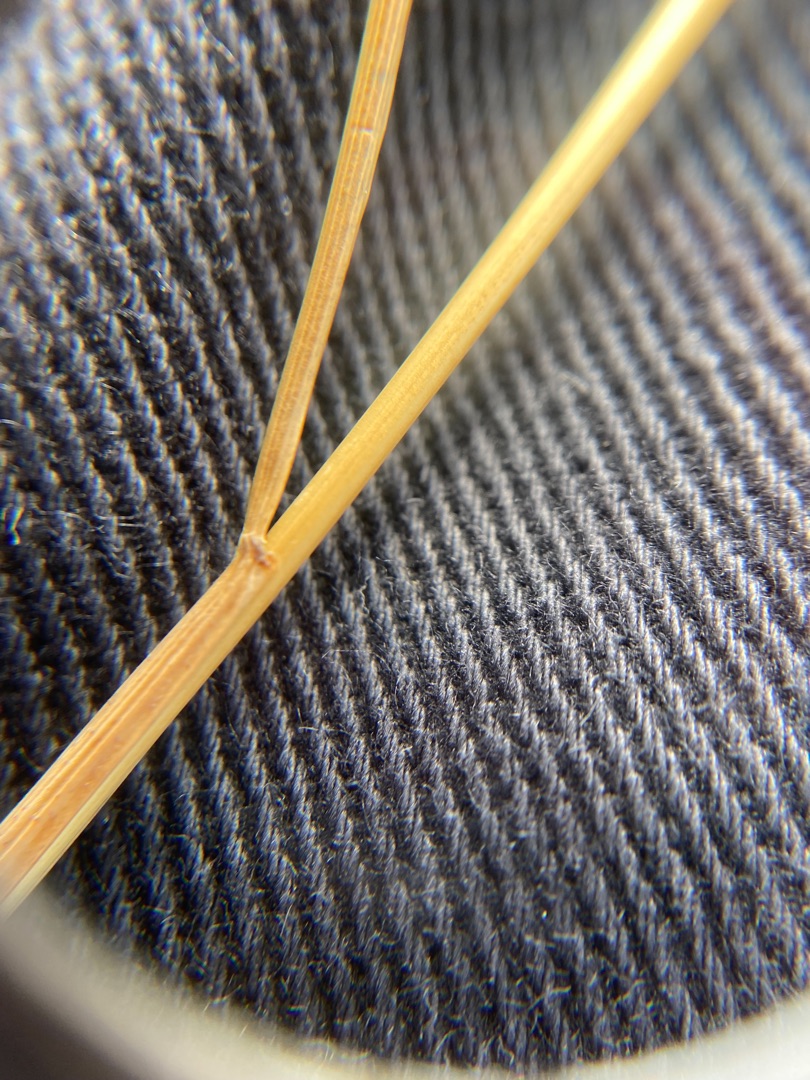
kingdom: Plantae
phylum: Tracheophyta
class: Liliopsida
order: Poales
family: Poaceae
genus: Festuca
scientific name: Festuca rubra
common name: Rød svingel
